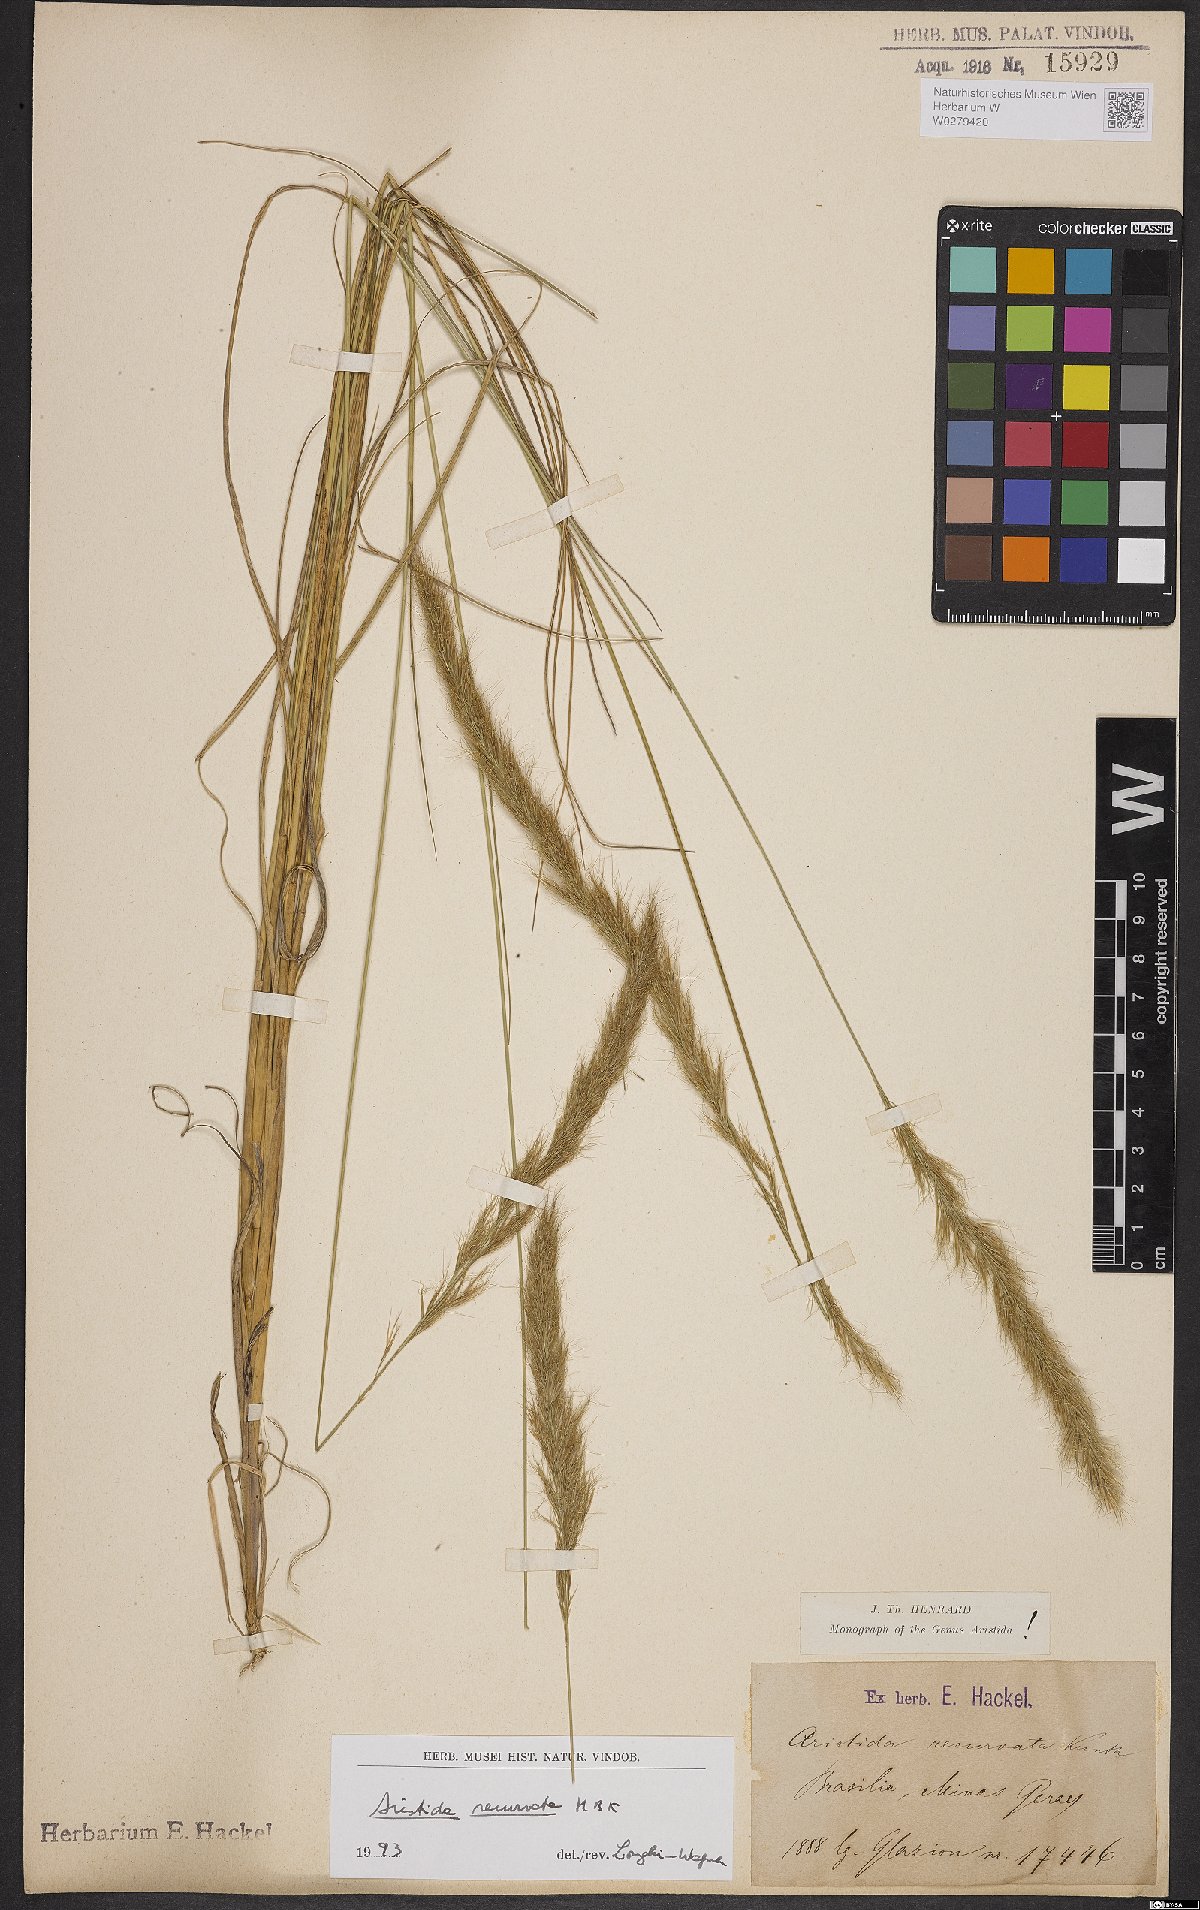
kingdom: Plantae
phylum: Tracheophyta
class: Liliopsida
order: Poales
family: Poaceae
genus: Aristida
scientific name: Aristida recurvata
